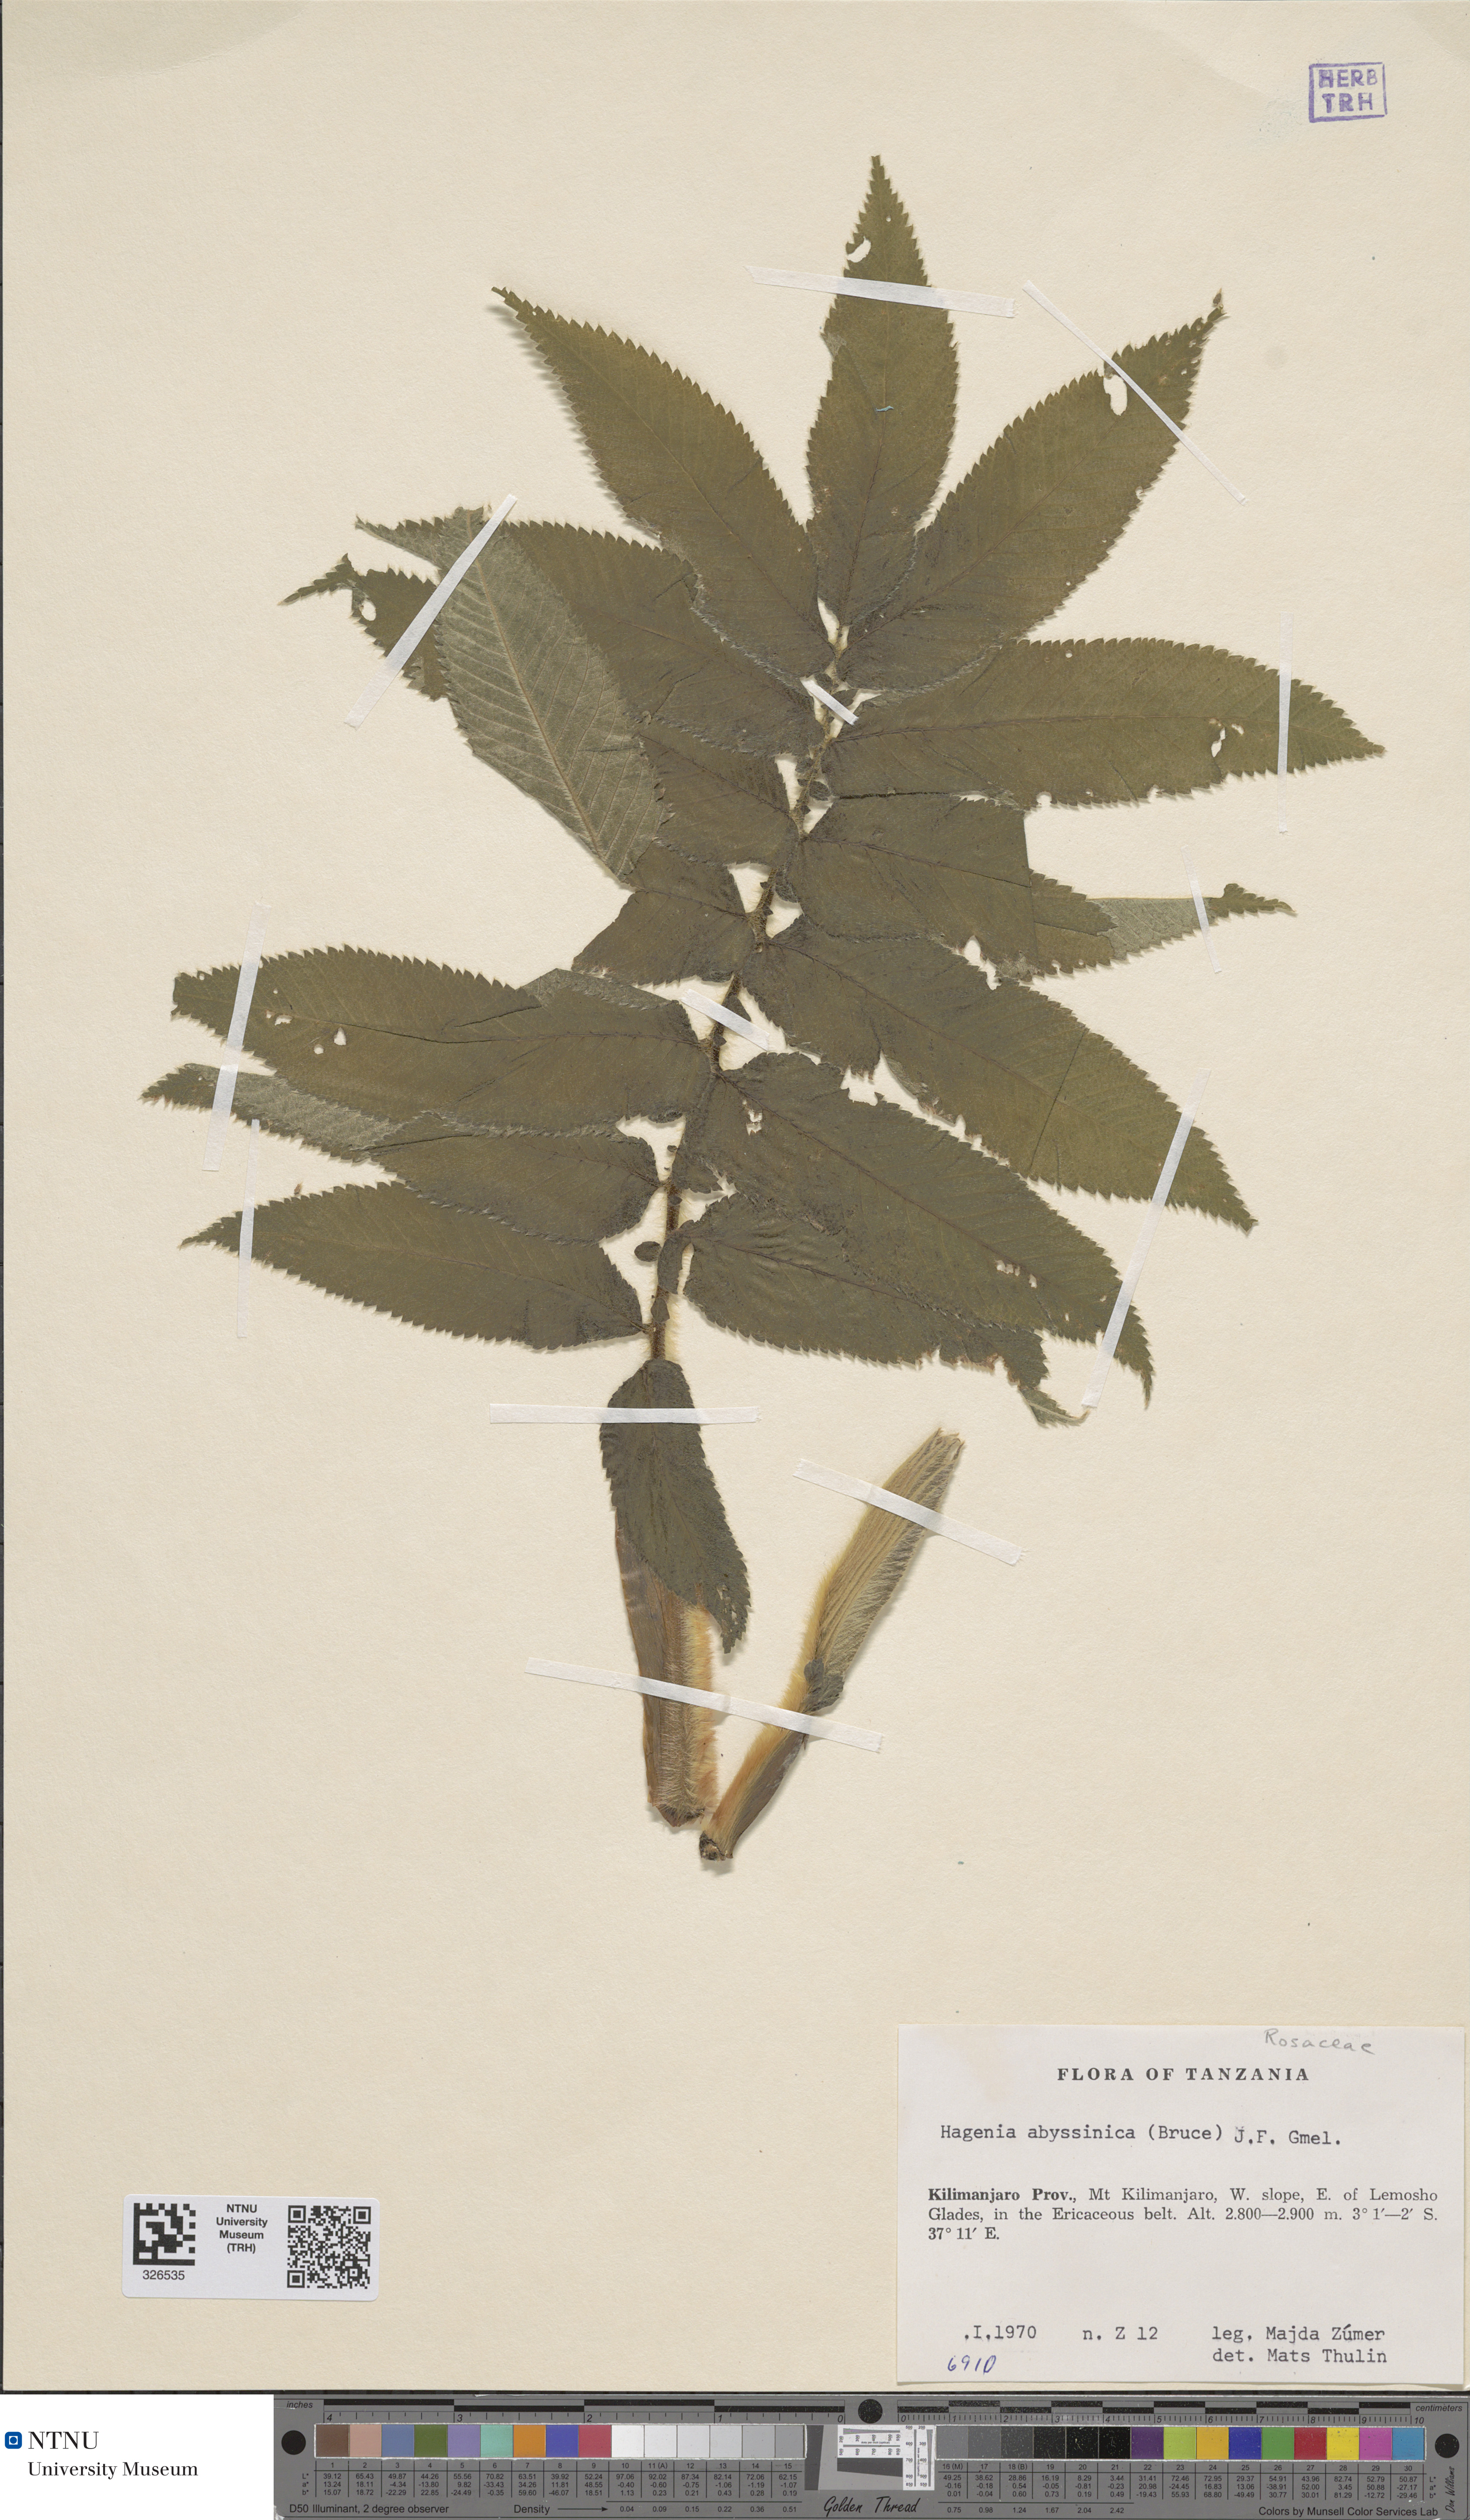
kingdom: Plantae
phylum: Tracheophyta
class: Magnoliopsida
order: Rosales
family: Rosaceae
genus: Hagenia
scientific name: Hagenia abyssinica
